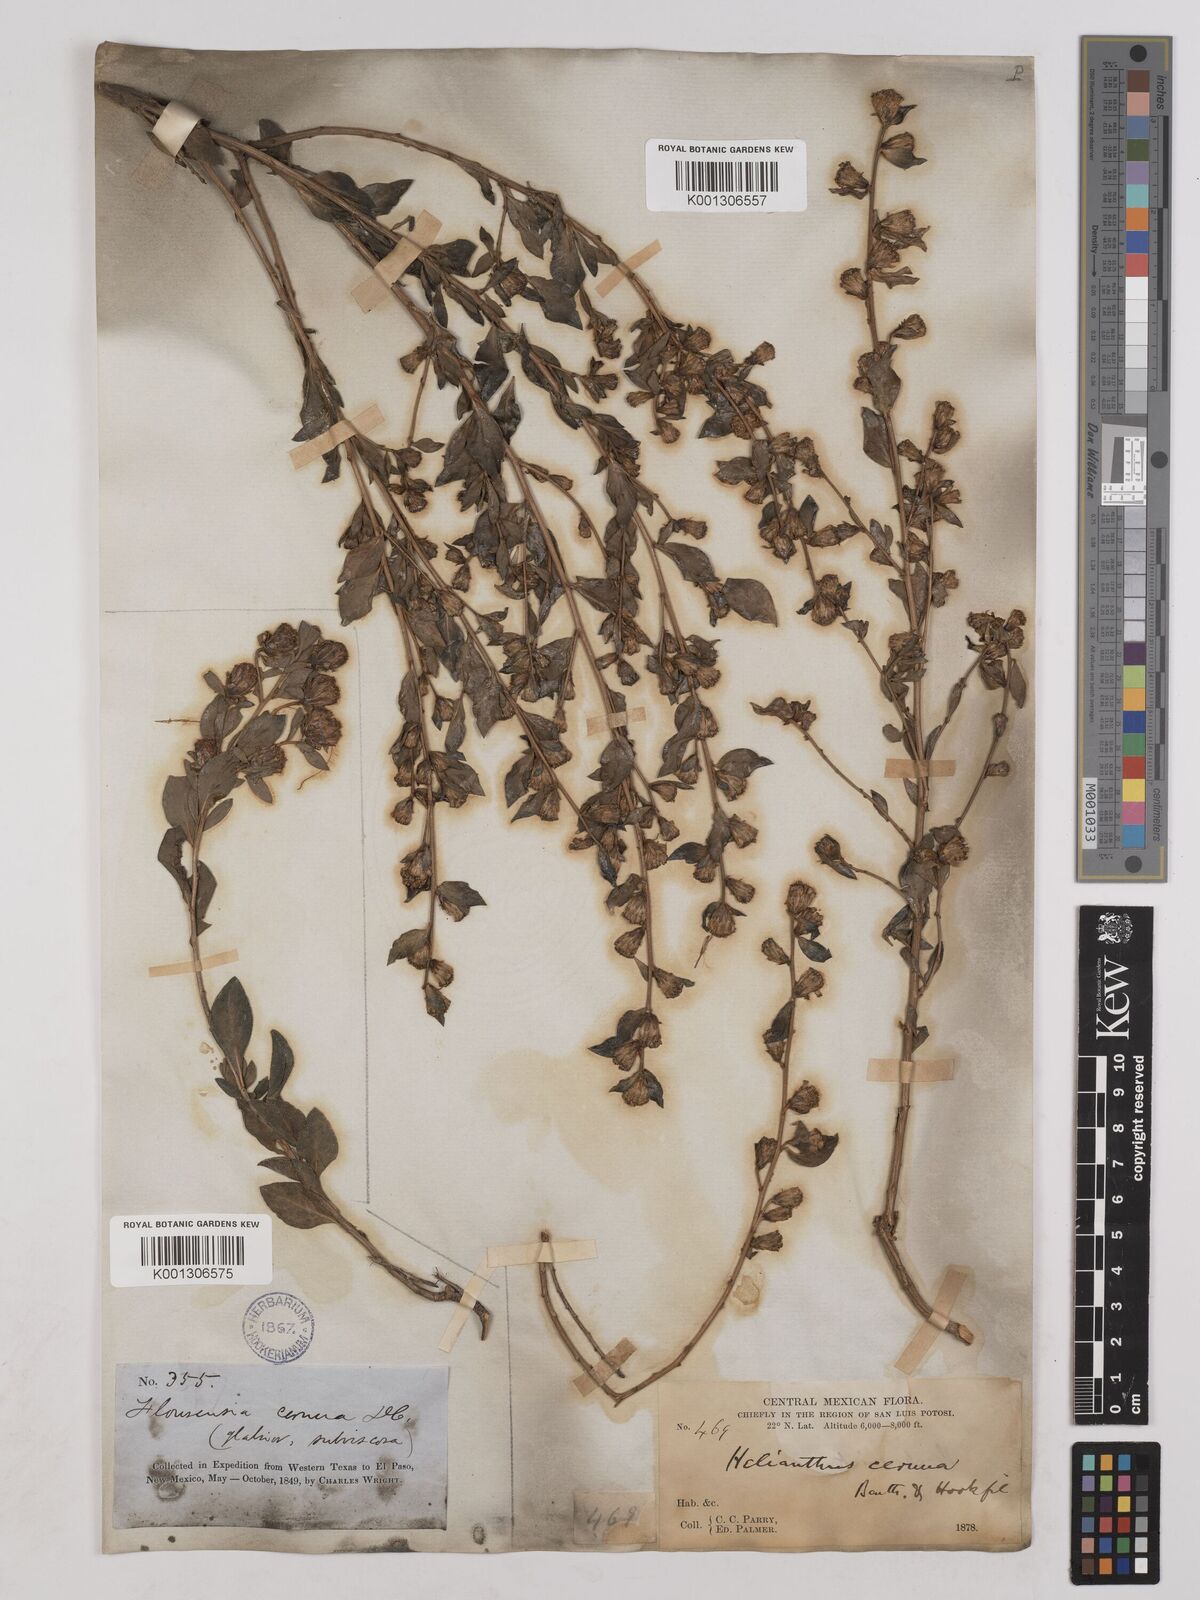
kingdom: Plantae
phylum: Tracheophyta
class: Magnoliopsida
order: Asterales
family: Asteraceae
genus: Flourensia
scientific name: Flourensia cernua
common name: Varnishbush
